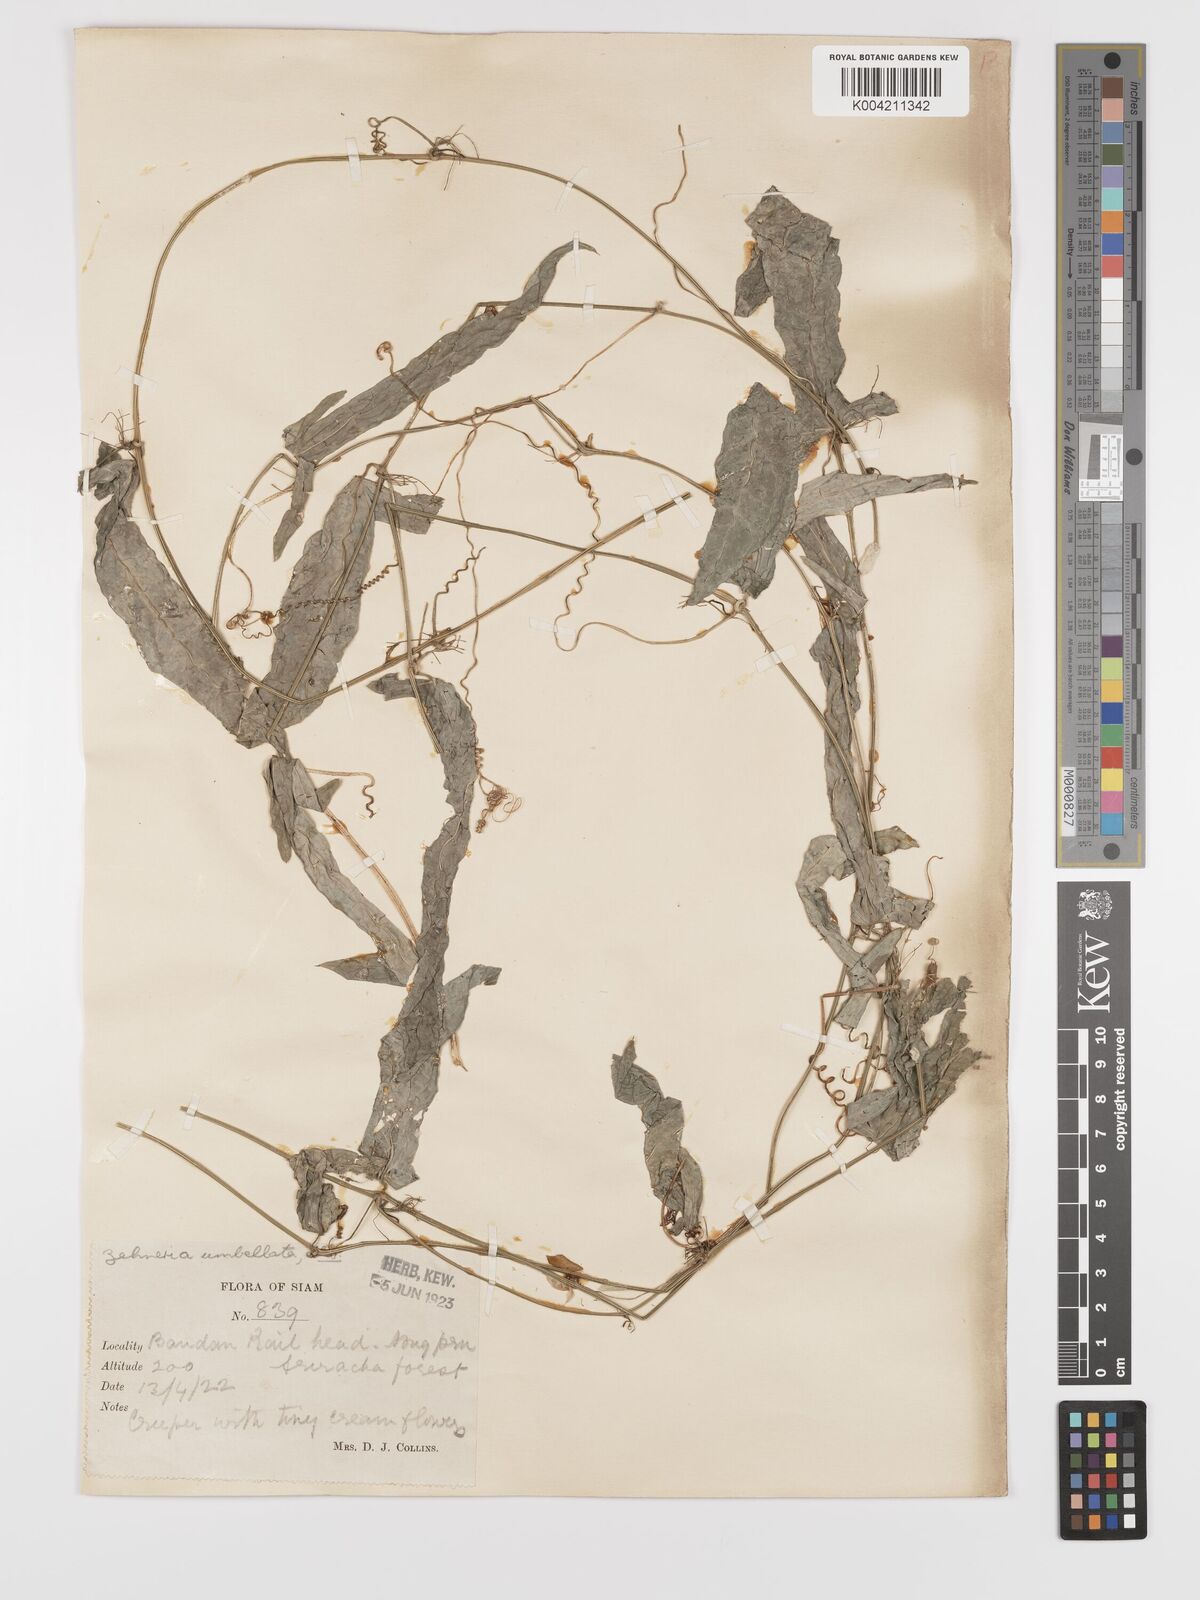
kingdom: Plantae
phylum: Tracheophyta
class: Magnoliopsida
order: Cucurbitales
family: Cucurbitaceae
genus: Solena
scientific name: Solena amplexicaulis
